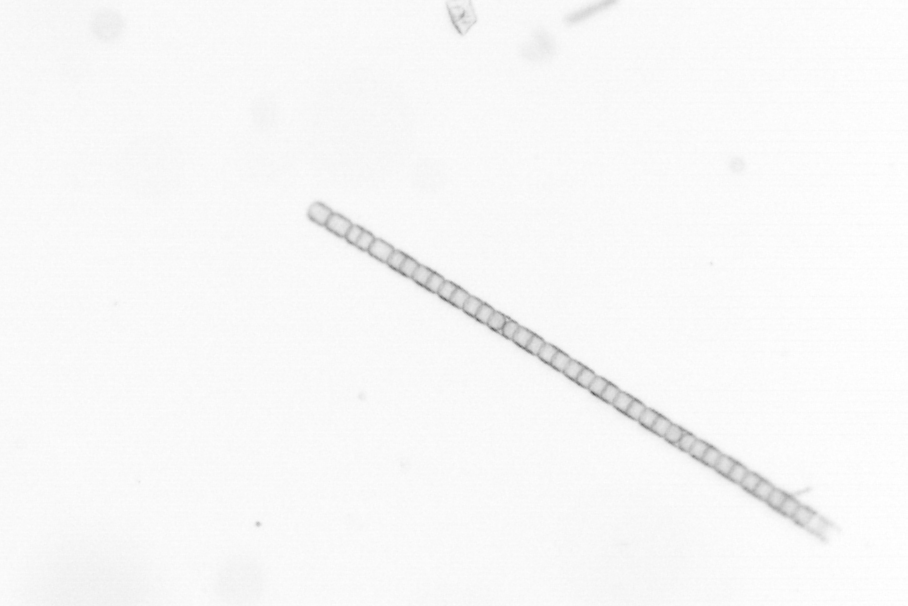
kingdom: Chromista
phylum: Ochrophyta
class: Bacillariophyceae
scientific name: Bacillariophyceae
